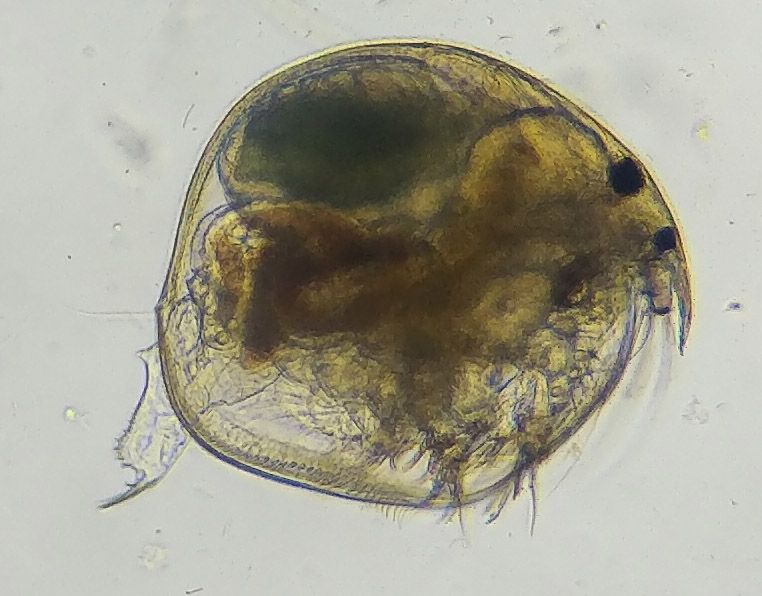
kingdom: Animalia
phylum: Arthropoda
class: Branchiopoda
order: Diplostraca
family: Chydoridae
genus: Chydorus
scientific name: Chydorus sphaericus
